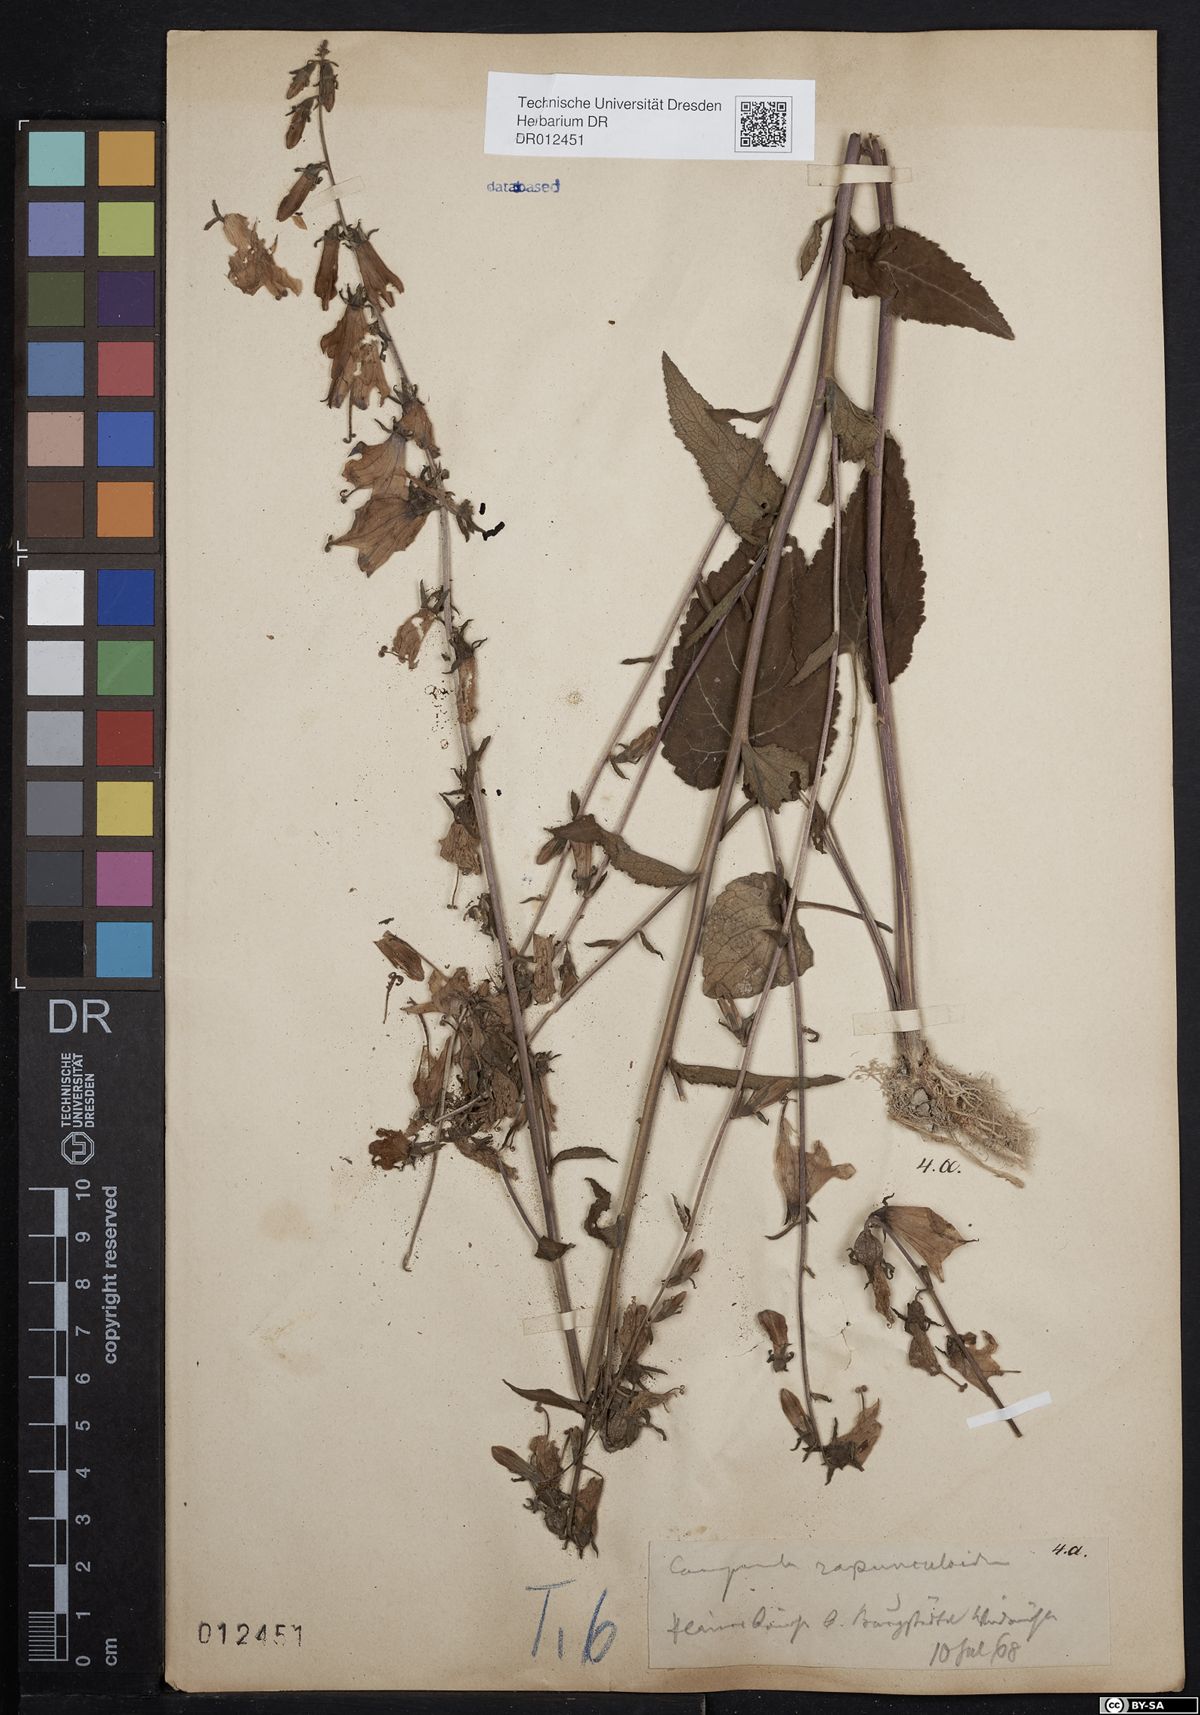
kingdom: Plantae
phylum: Tracheophyta
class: Magnoliopsida
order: Asterales
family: Campanulaceae
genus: Campanula
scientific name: Campanula rapunculoides
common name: Creeping bellflower
